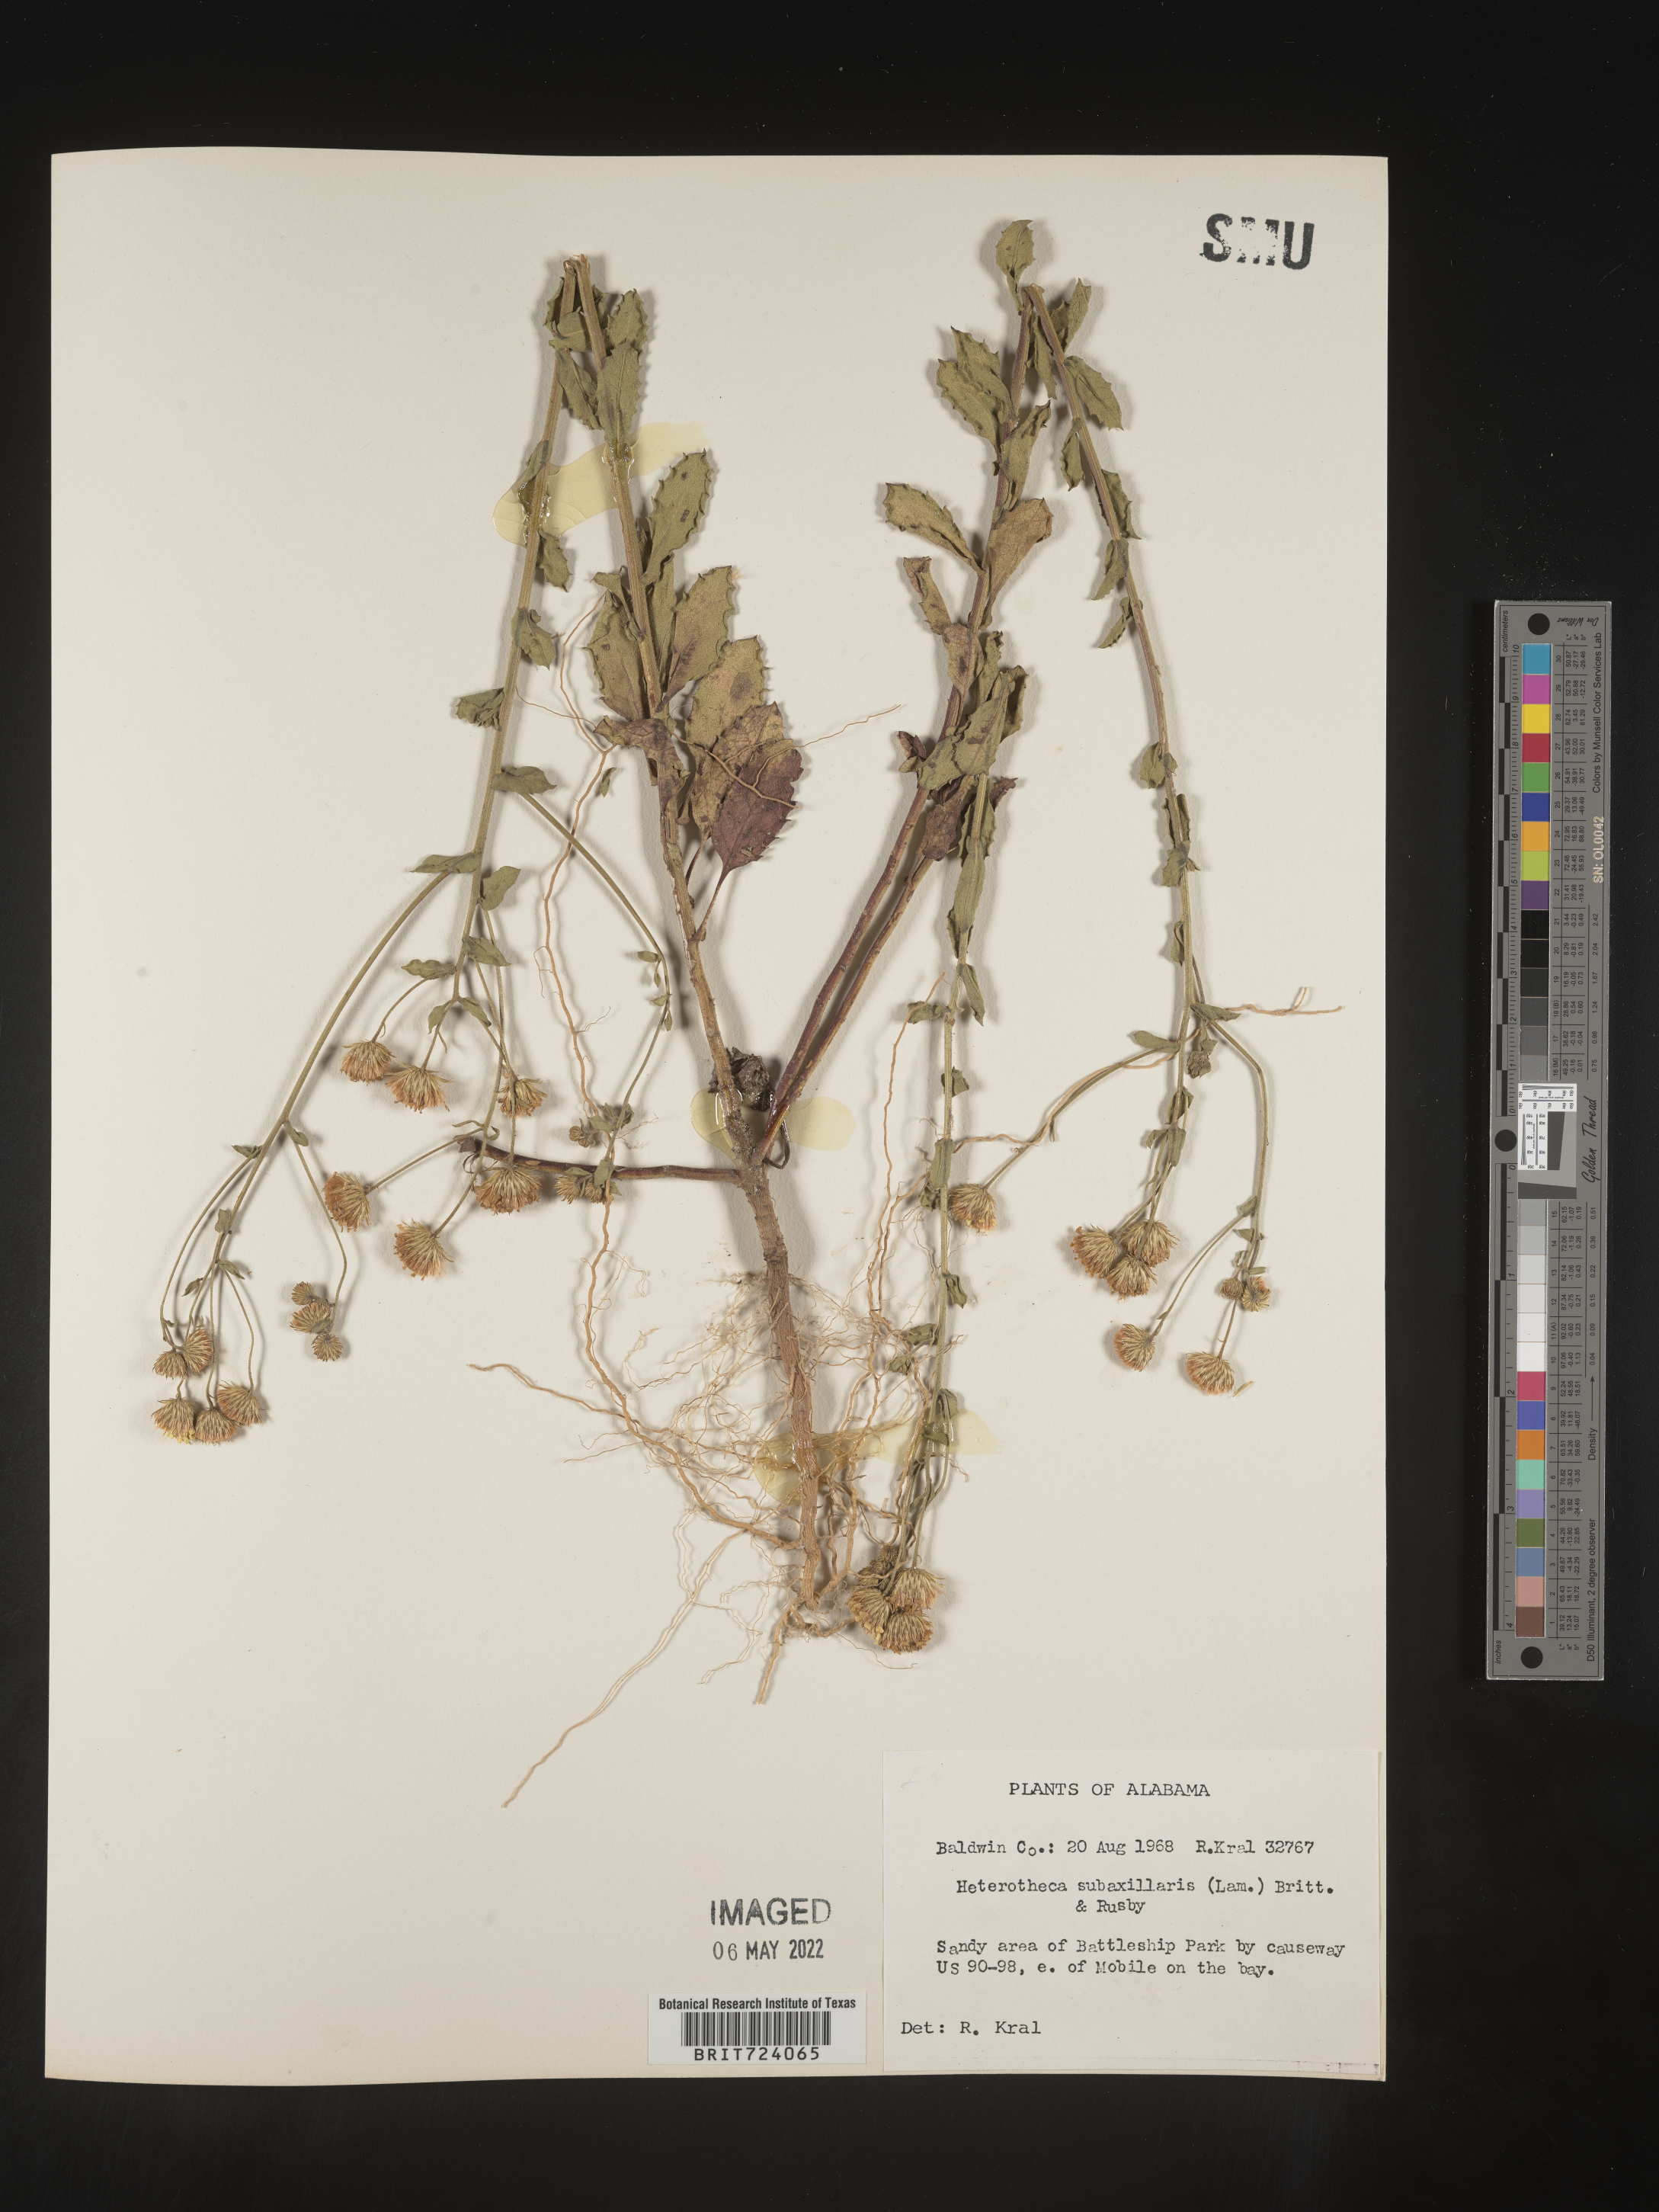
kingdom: Plantae
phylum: Tracheophyta
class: Magnoliopsida
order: Asterales
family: Asteraceae
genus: Heterotheca
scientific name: Heterotheca subaxillaris
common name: Camphorweed
